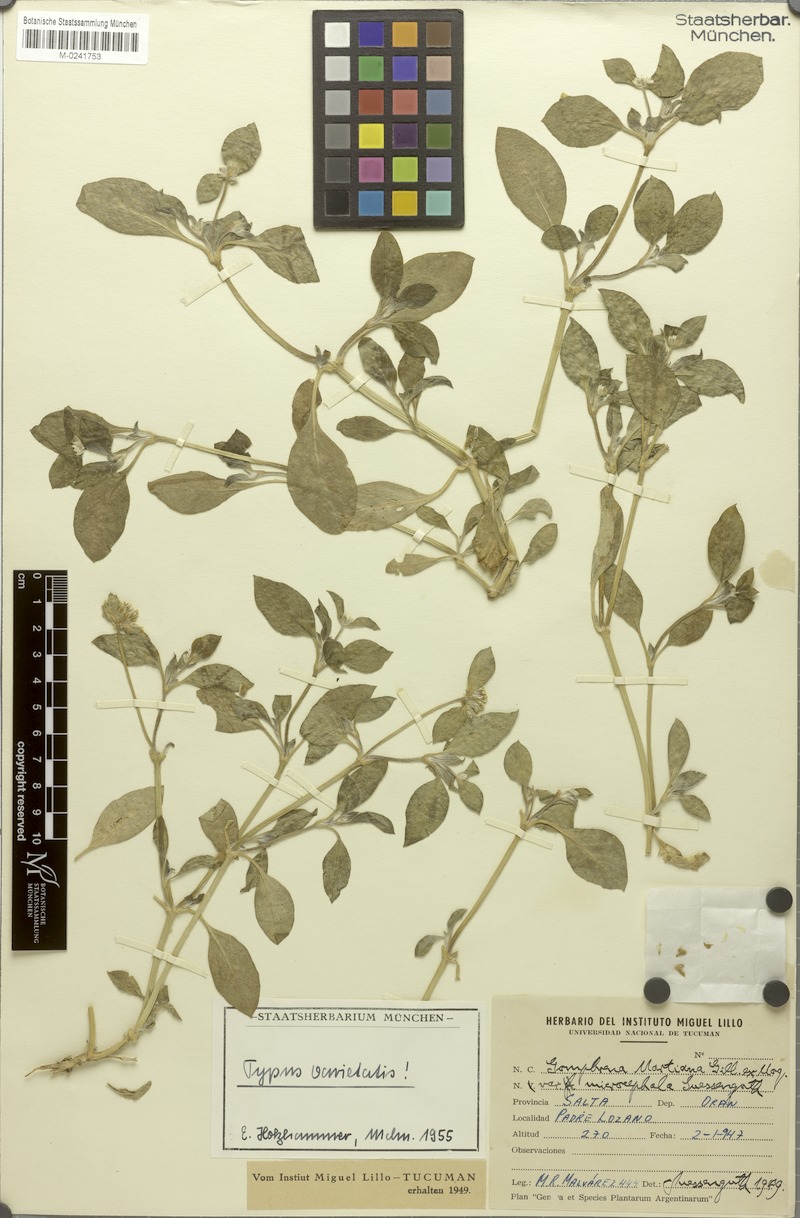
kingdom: Plantae
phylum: Tracheophyta
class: Magnoliopsida
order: Caryophyllales
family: Amaranthaceae
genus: Gomphrena
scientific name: Gomphrena martiana
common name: Globe amaranth
